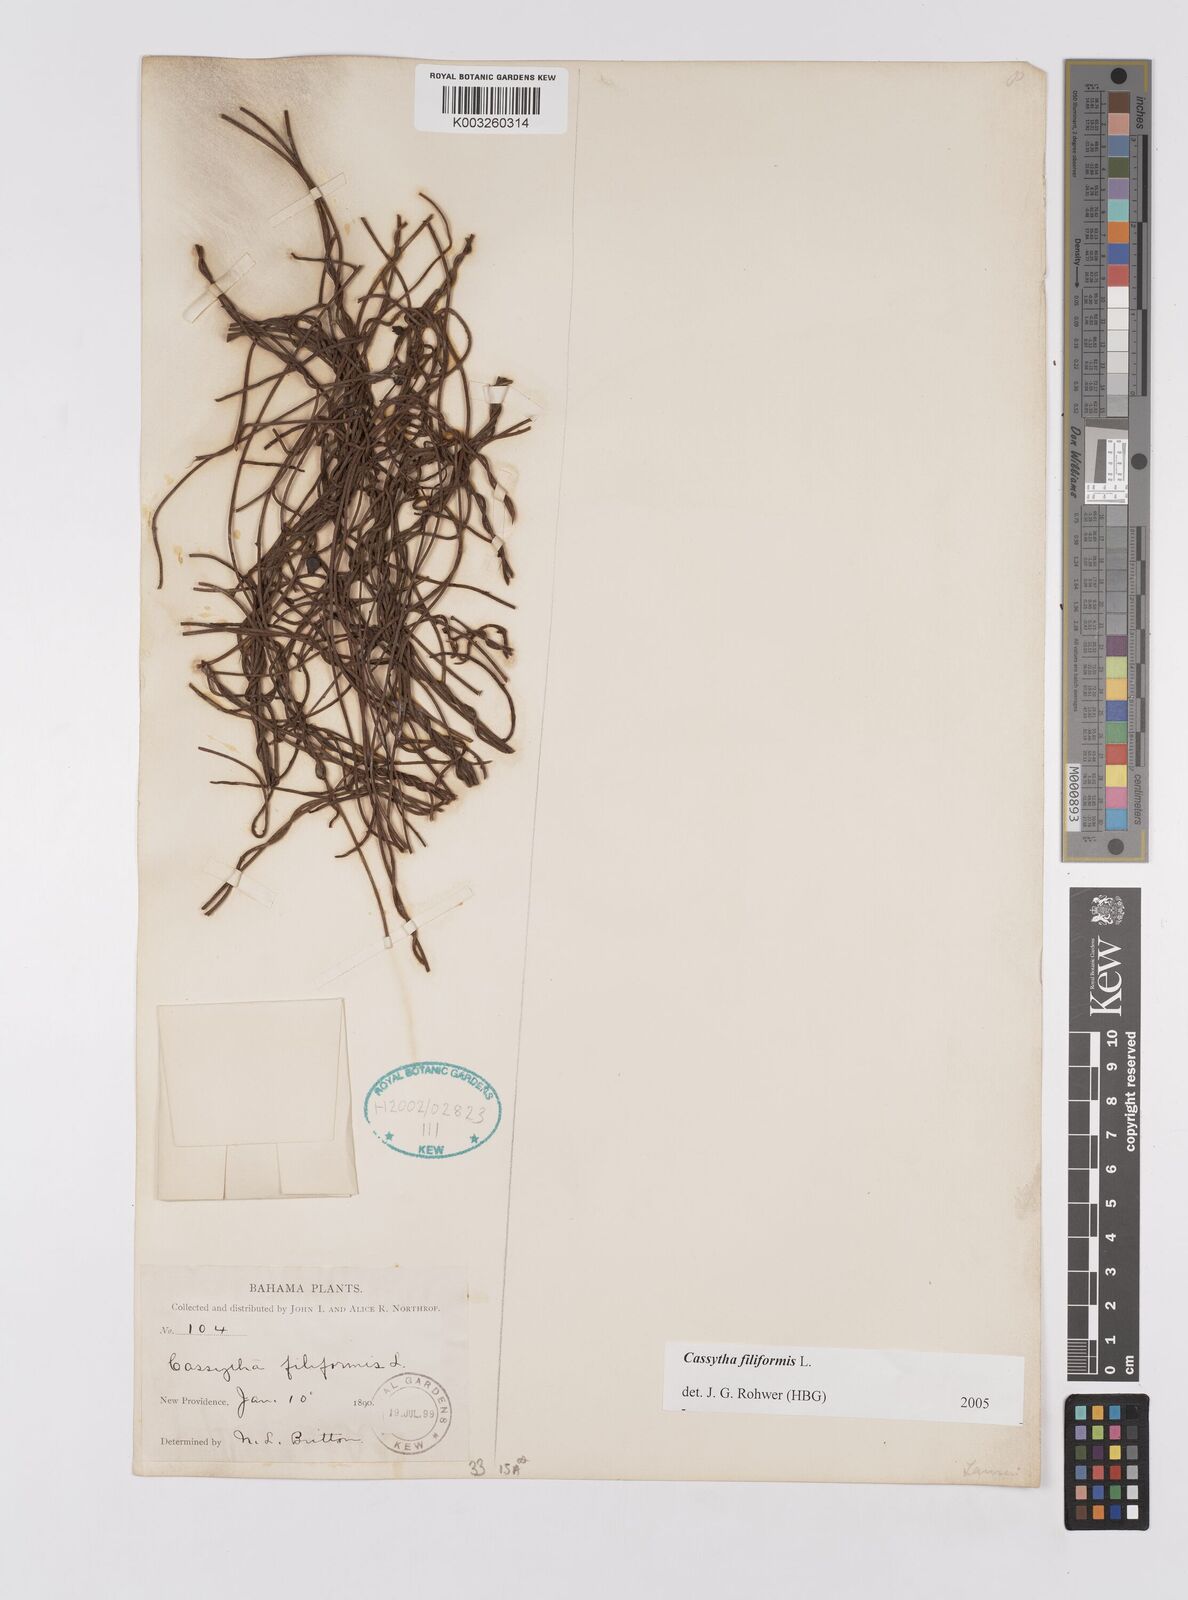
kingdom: Plantae
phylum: Tracheophyta
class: Magnoliopsida
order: Laurales
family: Lauraceae
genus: Cassytha
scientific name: Cassytha filiformis
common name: Dodder-laurel
